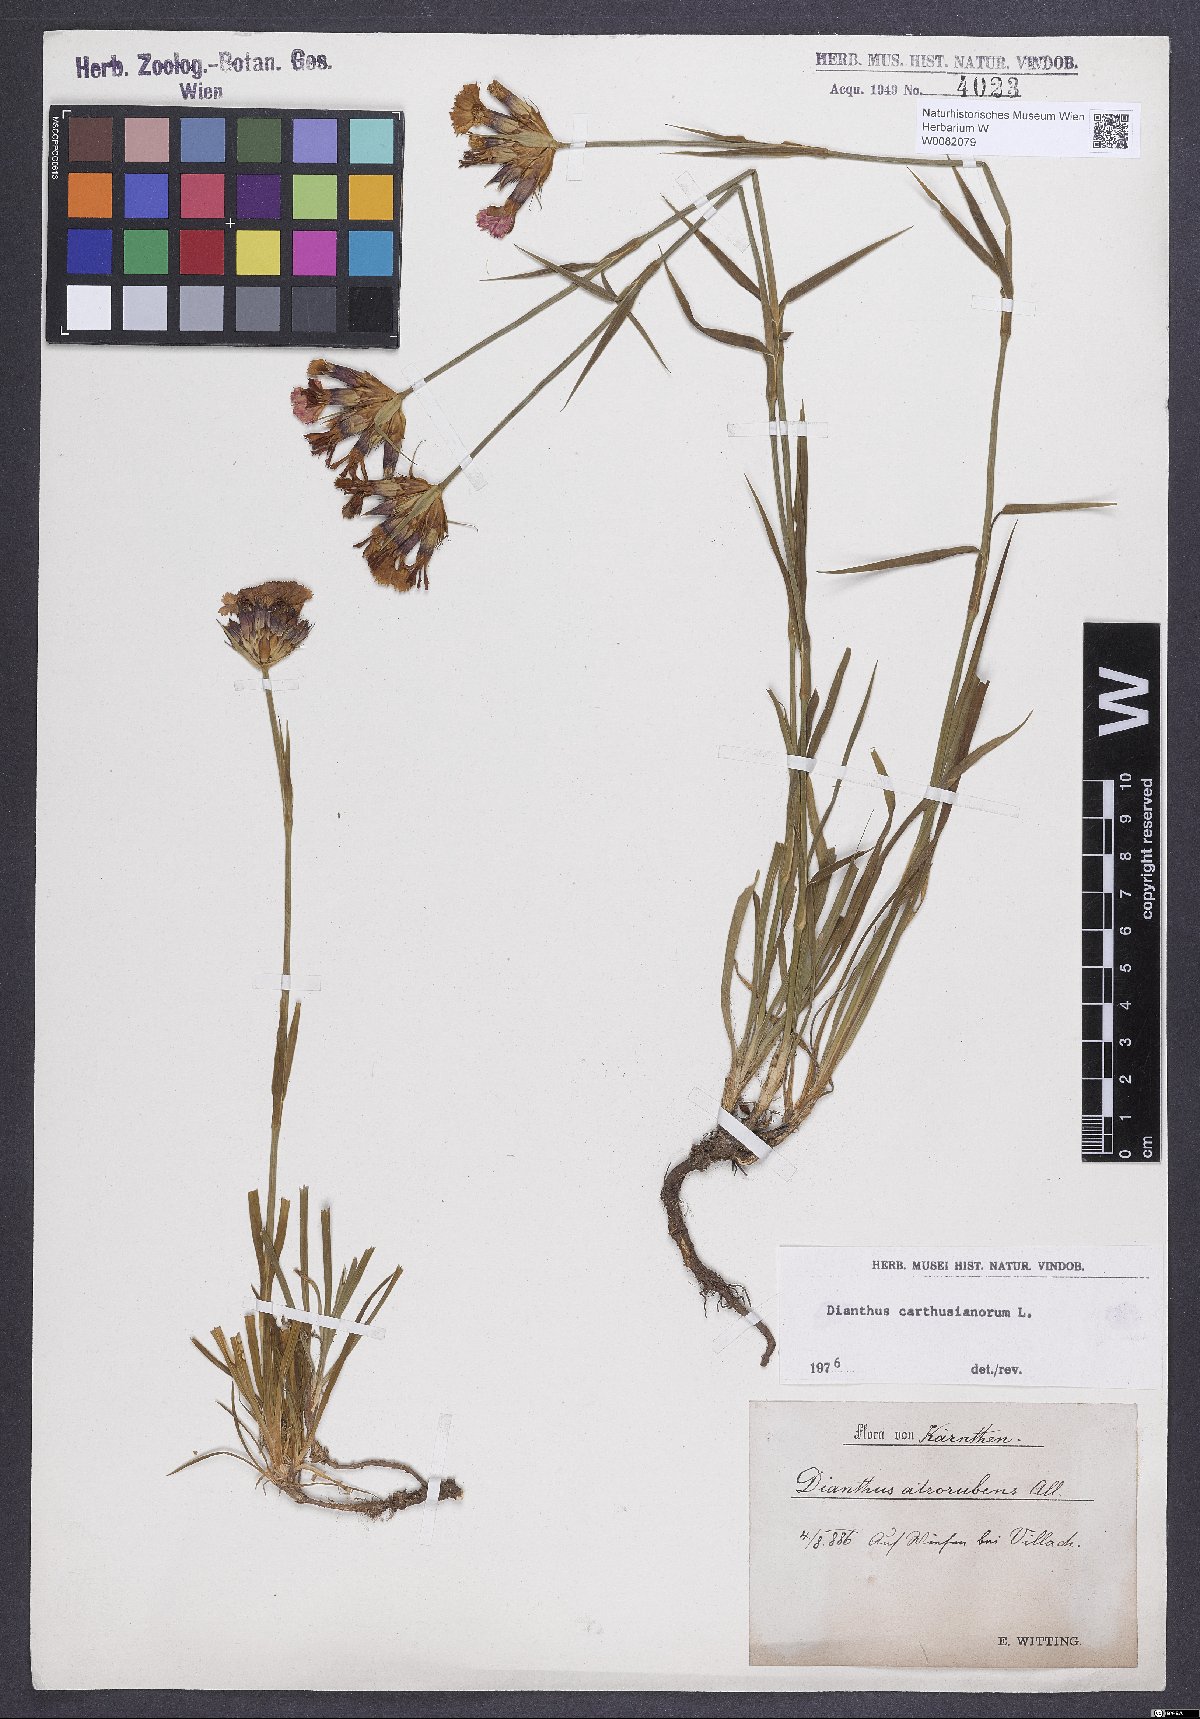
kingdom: Plantae
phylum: Tracheophyta
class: Magnoliopsida
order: Caryophyllales
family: Caryophyllaceae
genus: Dianthus
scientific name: Dianthus carthusianorum
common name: Carthusian pink
